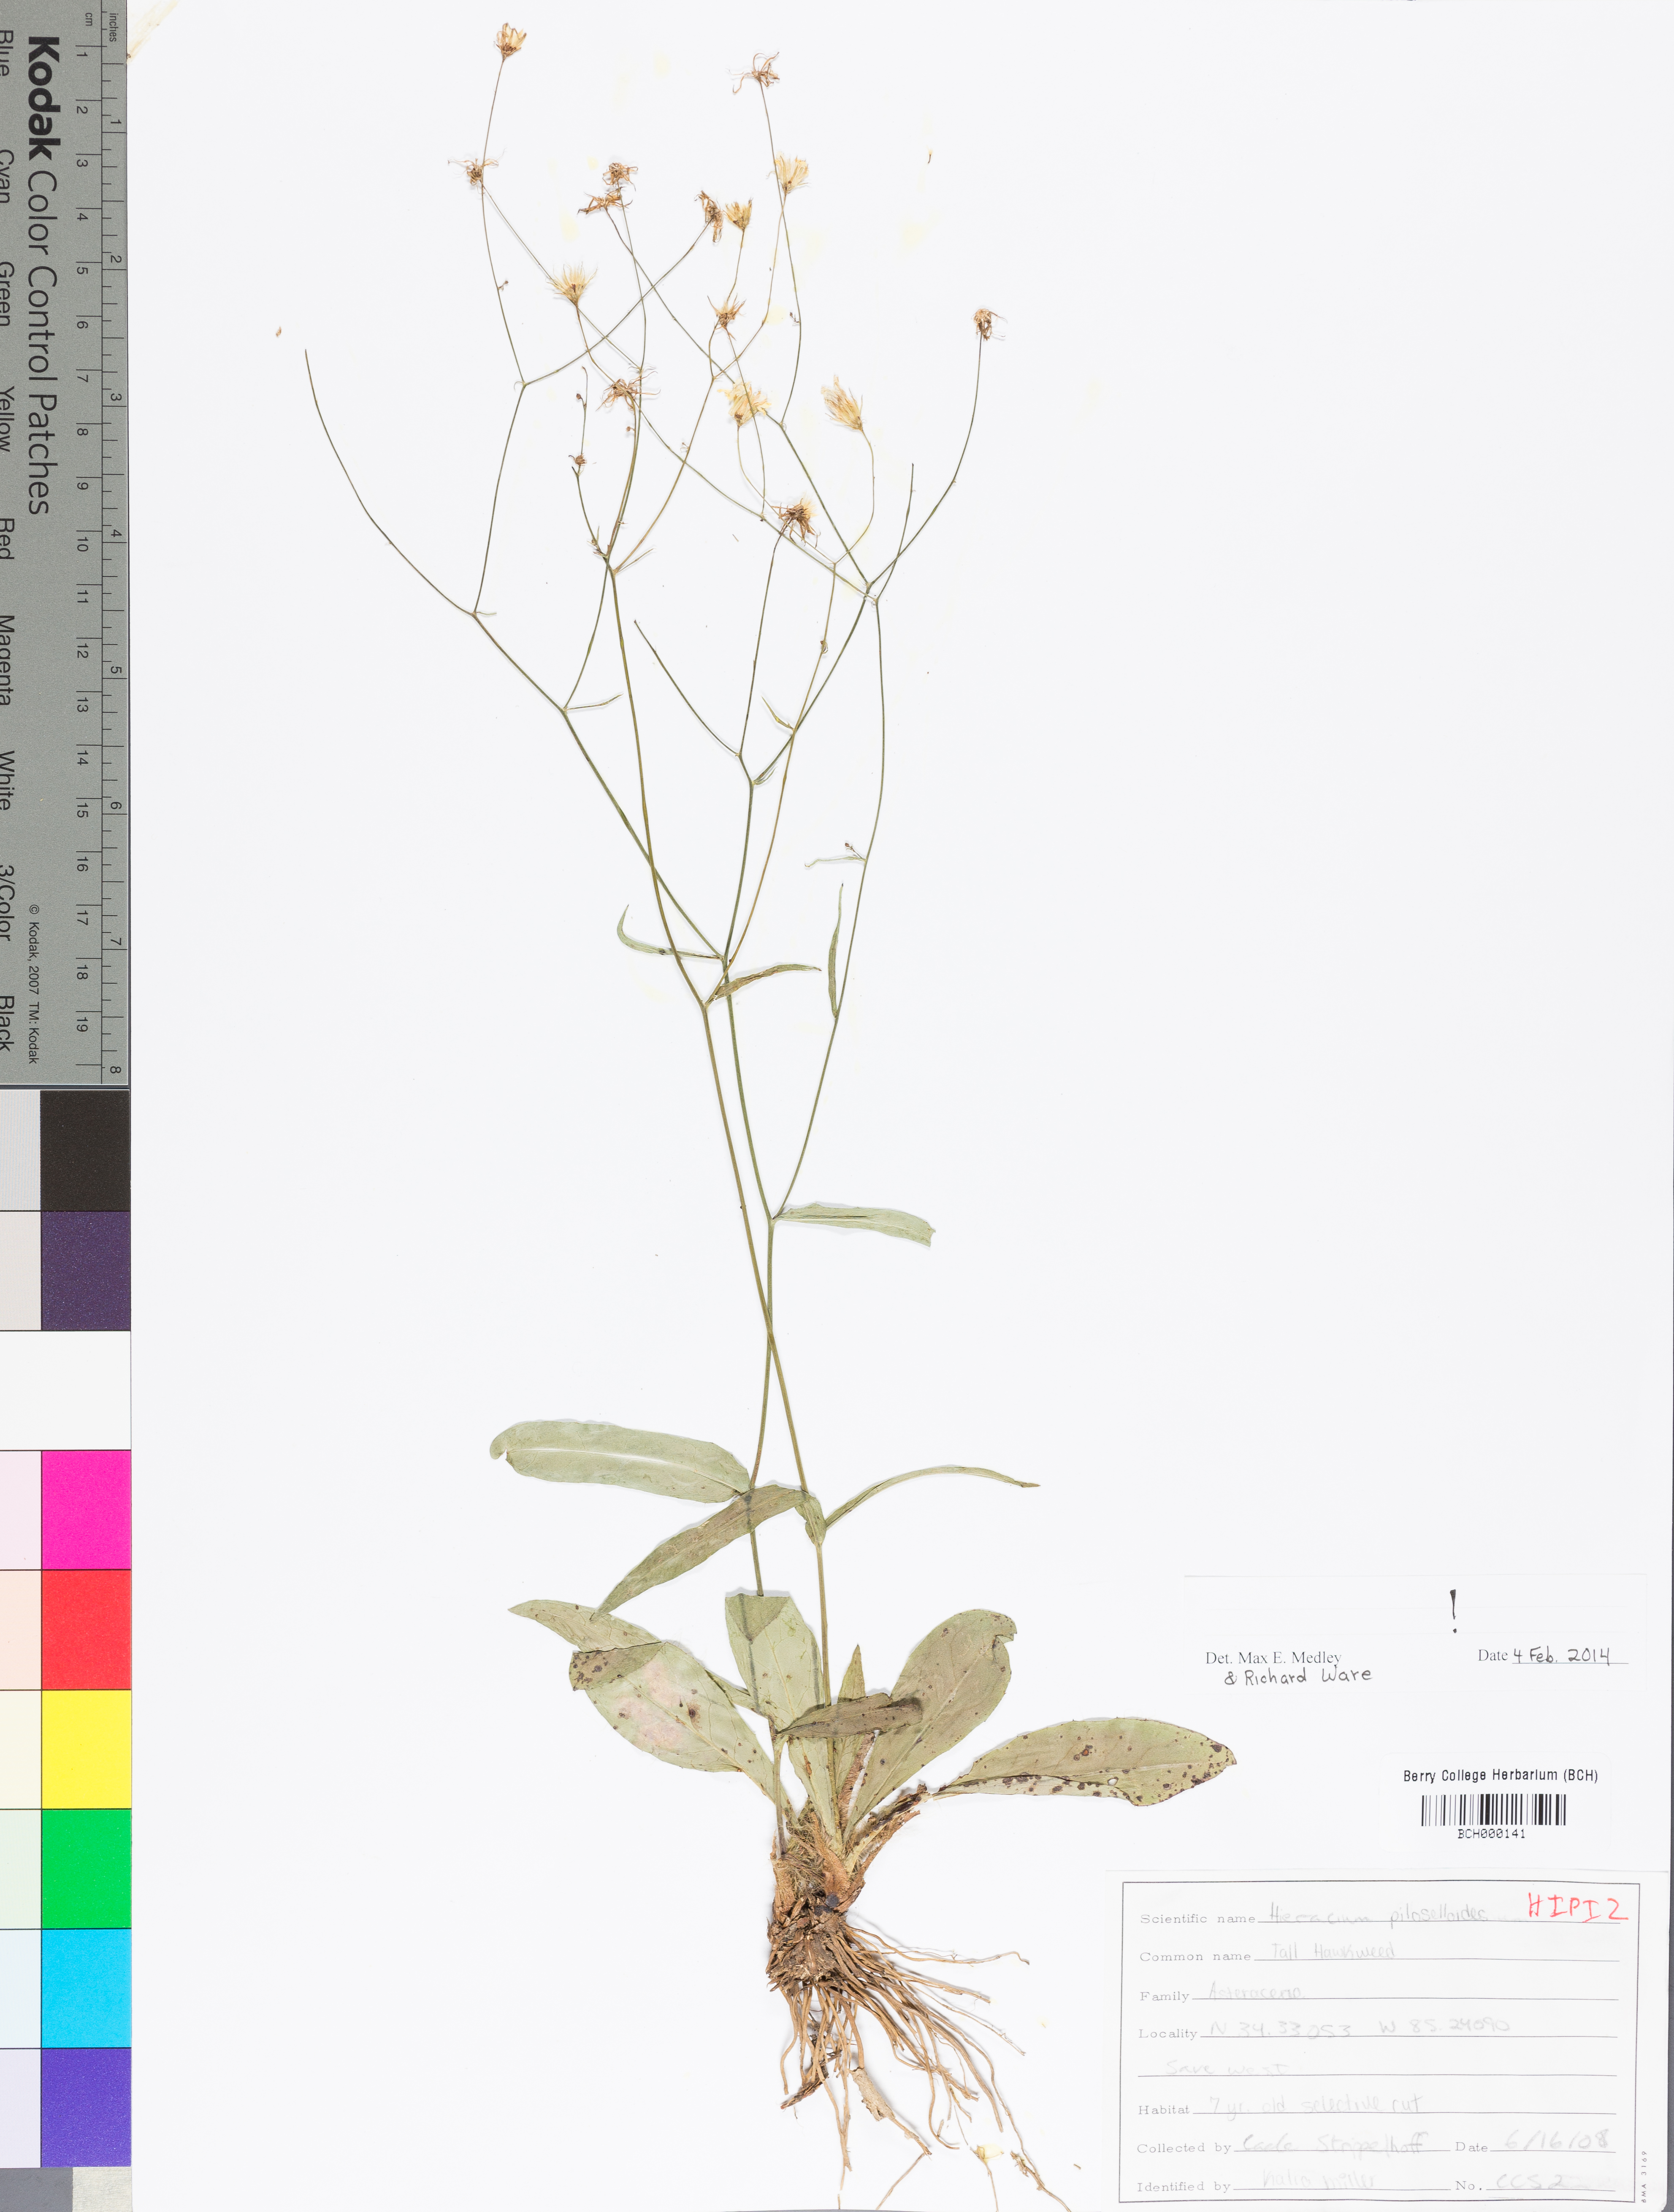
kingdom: Plantae
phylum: Tracheophyta
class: Magnoliopsida
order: Asterales
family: Asteraceae
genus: Pilosella
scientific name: Pilosella piloselloides
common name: Glaucous king-devil
